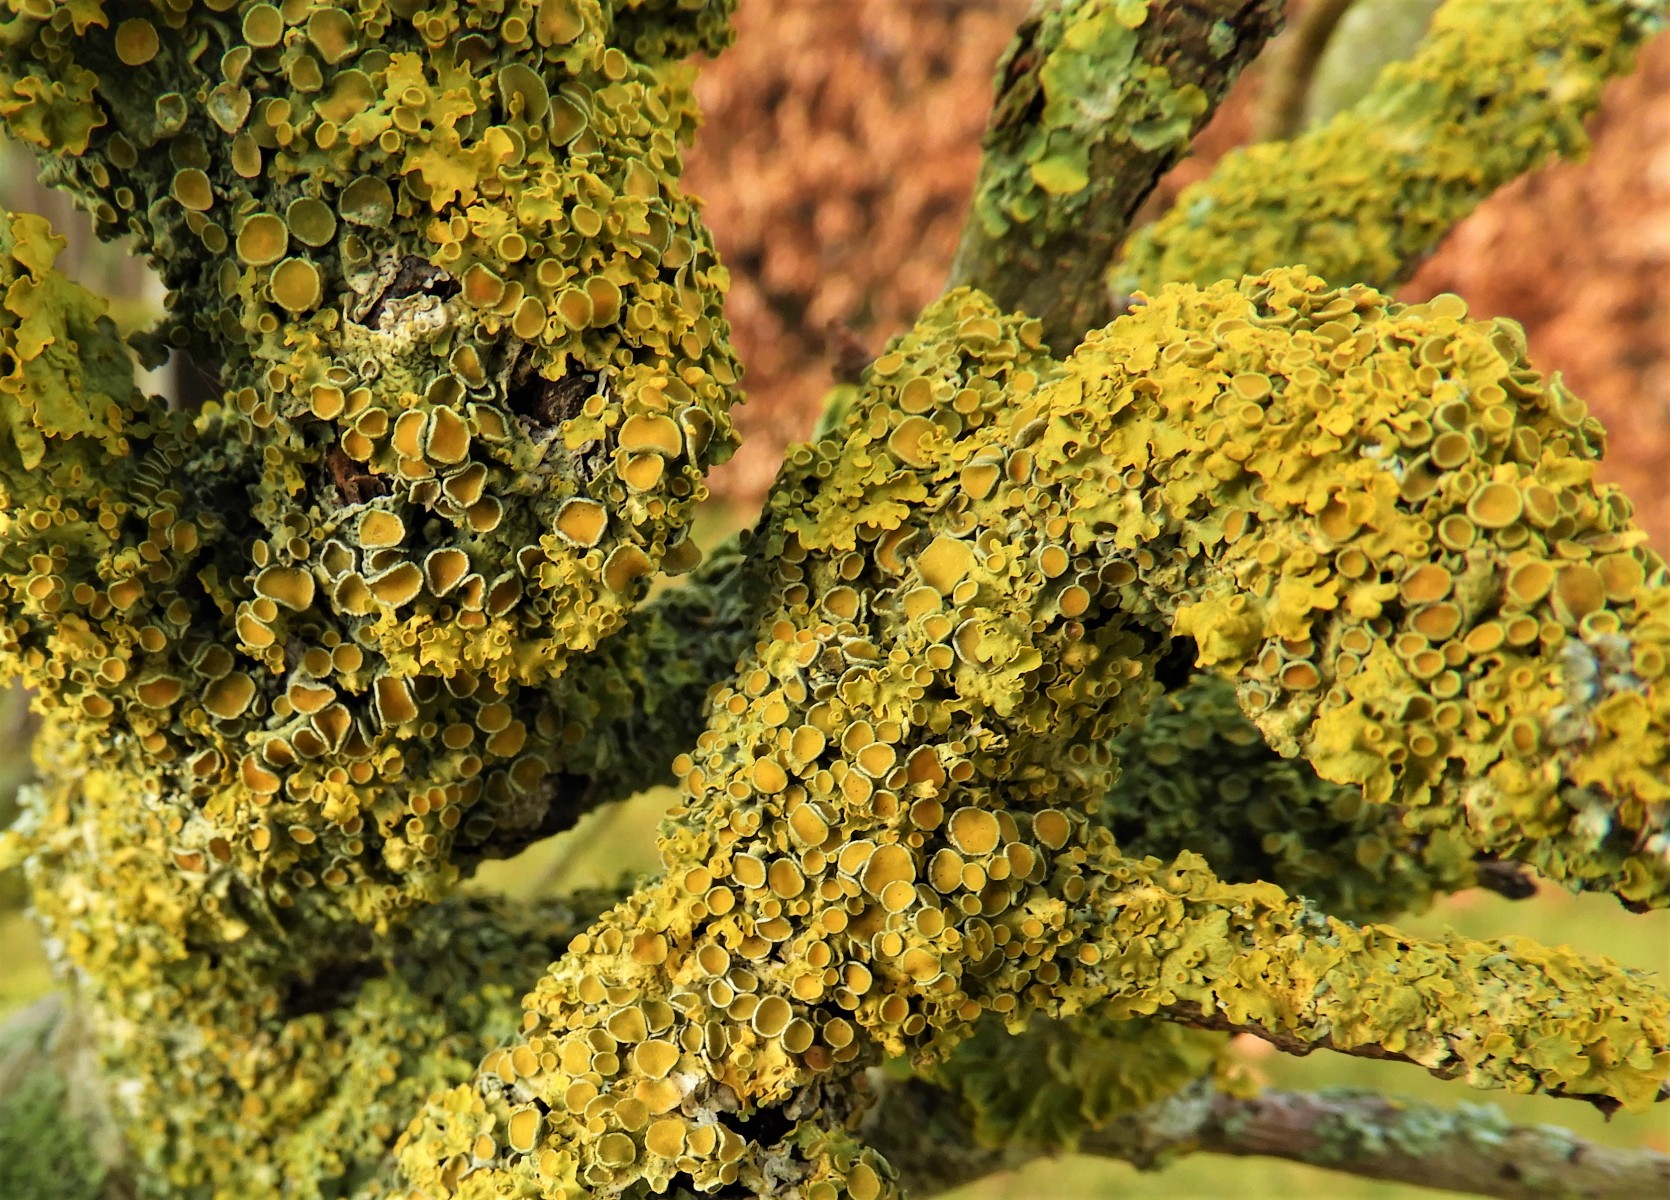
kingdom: Fungi
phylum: Ascomycota
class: Lecanoromycetes
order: Teloschistales
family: Teloschistaceae
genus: Xanthoria
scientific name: Xanthoria parietina
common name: almindelig væggelav
